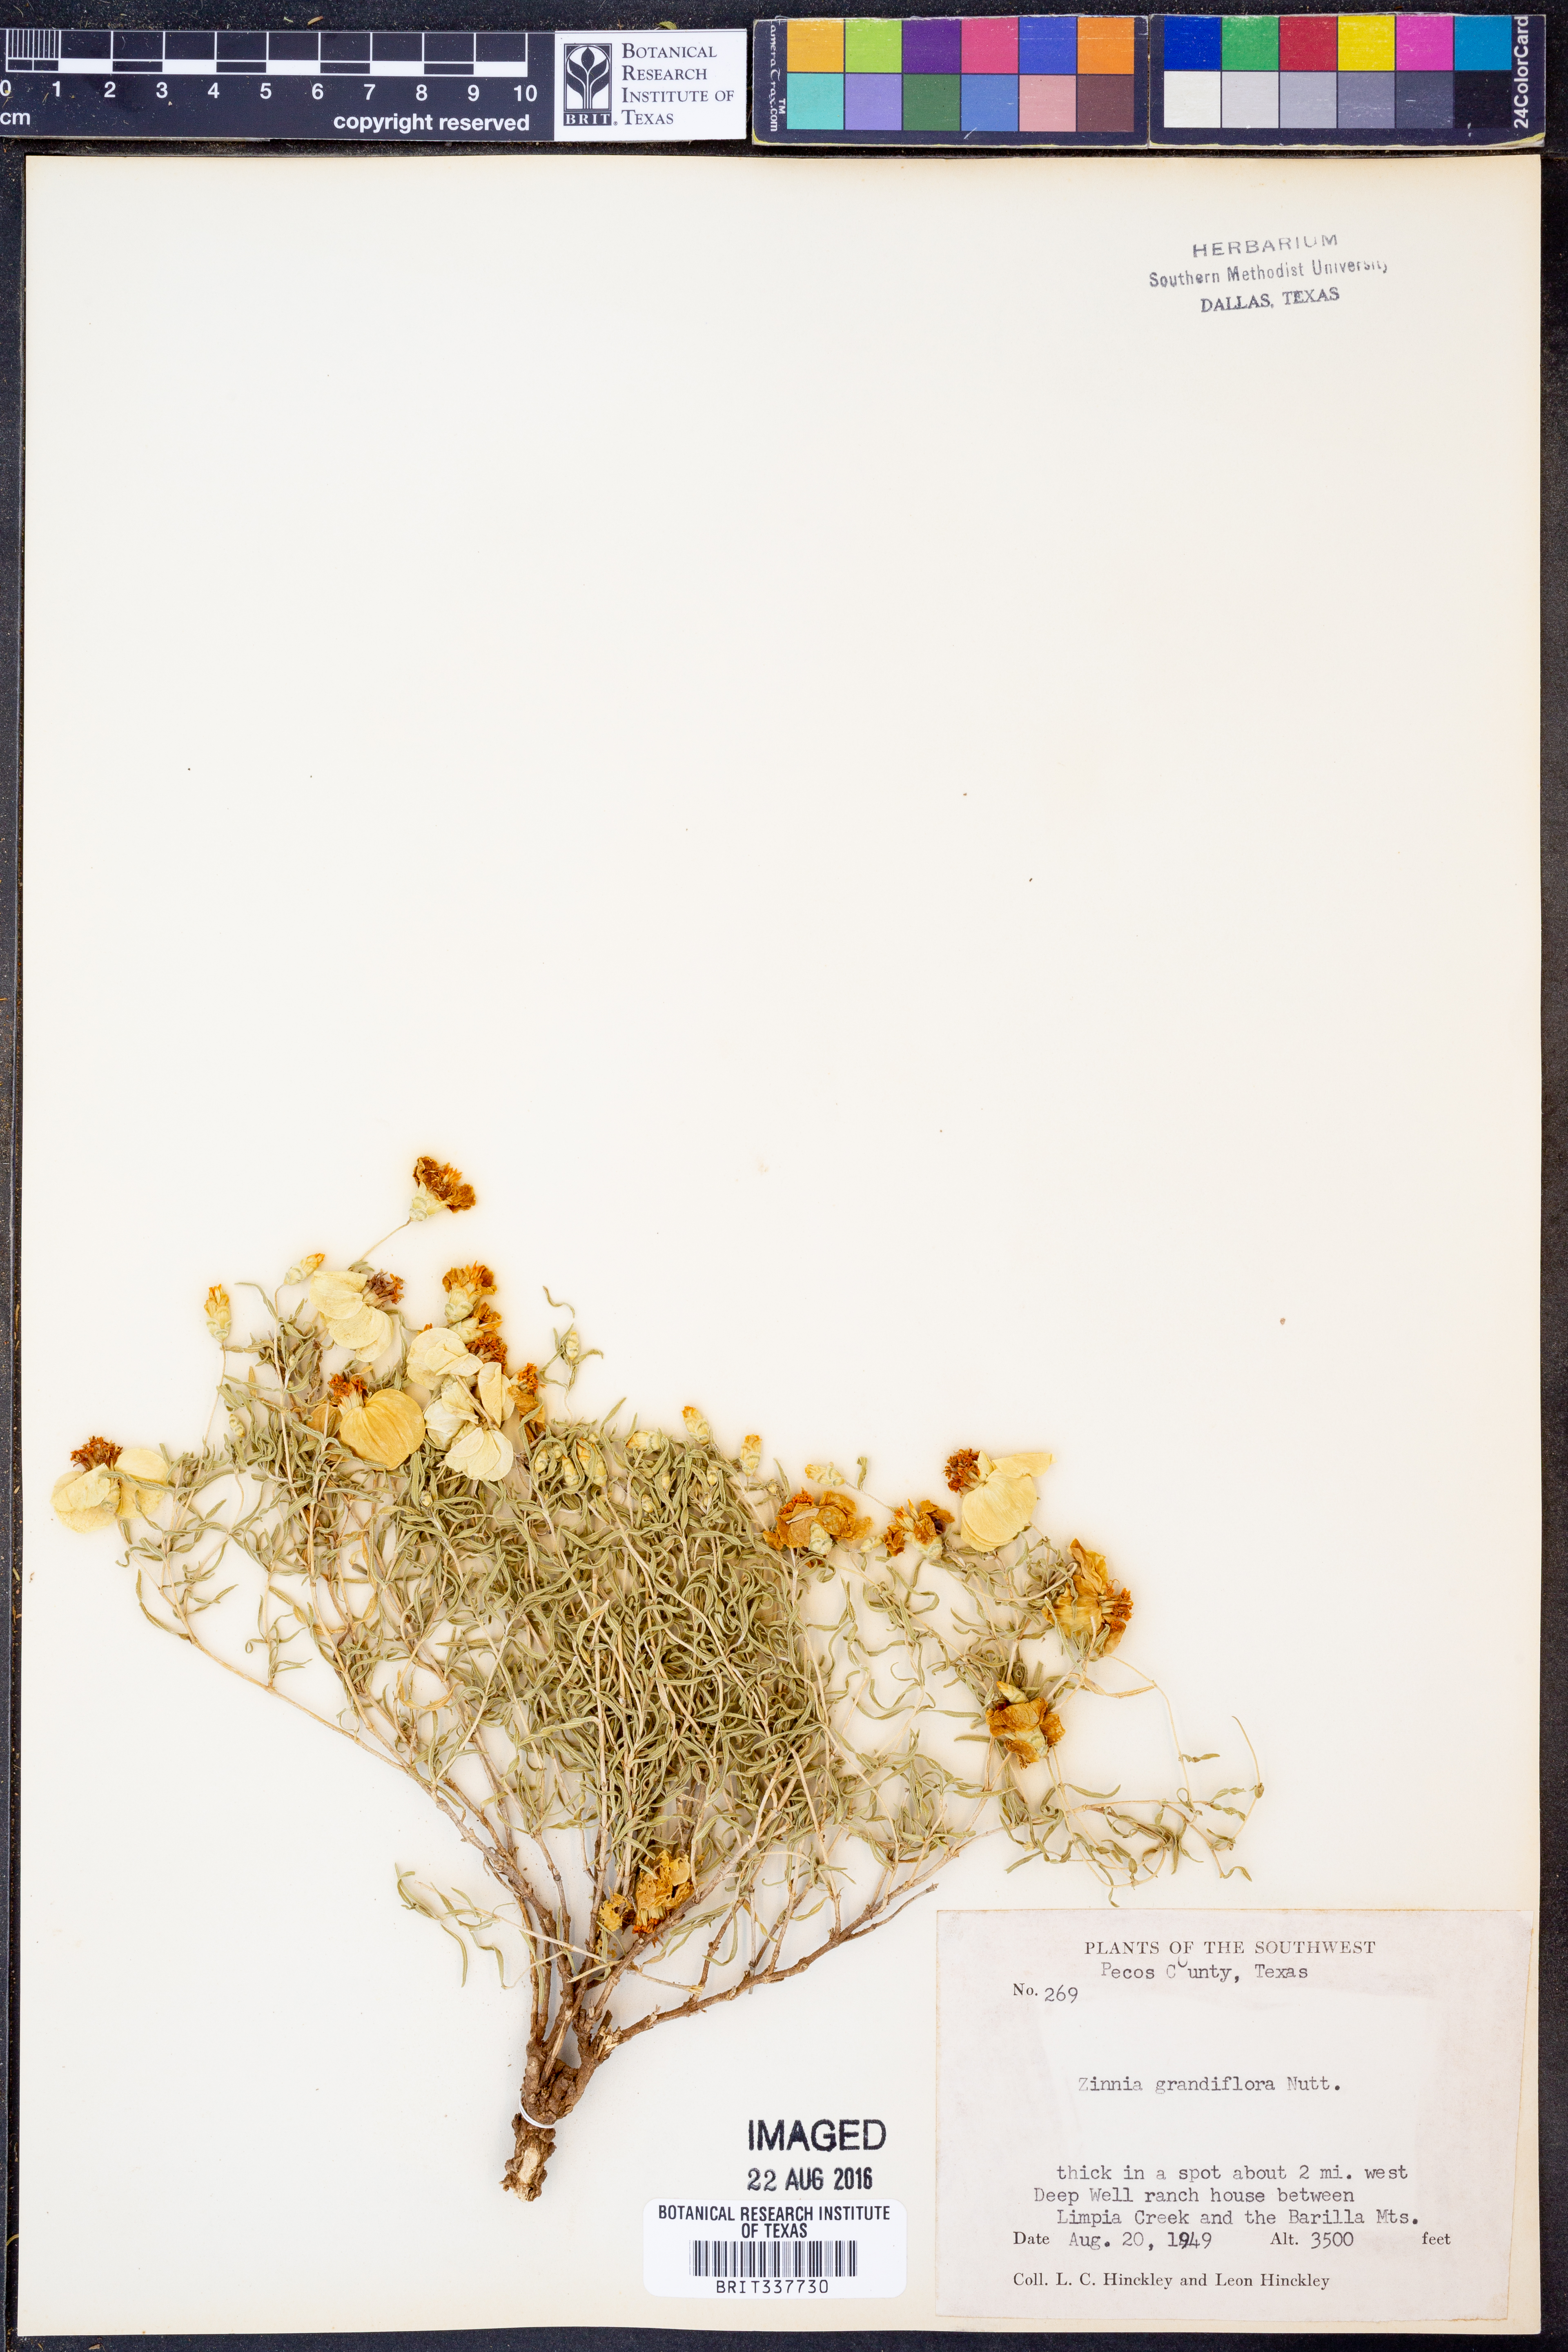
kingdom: Plantae
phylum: Tracheophyta
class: Magnoliopsida
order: Asterales
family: Asteraceae
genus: Zinnia
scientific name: Zinnia grandiflora
